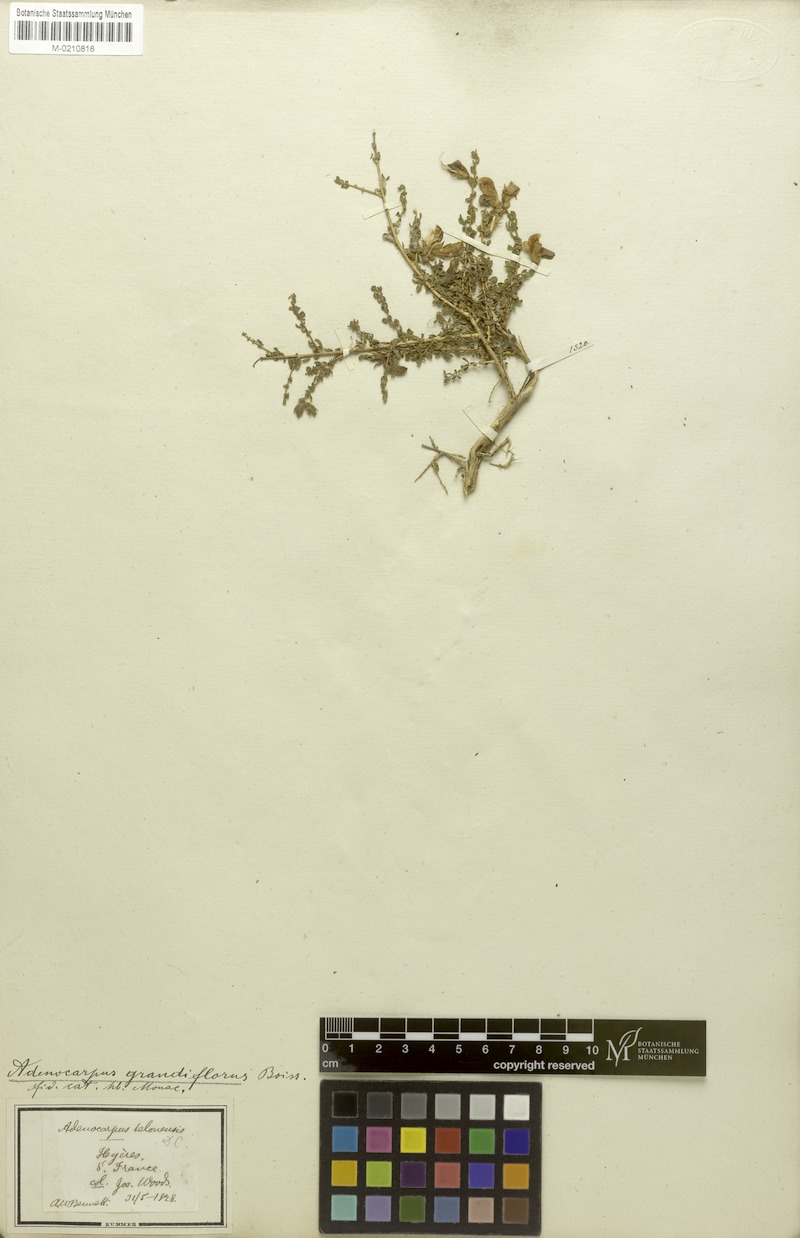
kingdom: Plantae
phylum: Tracheophyta
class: Magnoliopsida
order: Fabales
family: Fabaceae
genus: Adenocarpus
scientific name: Adenocarpus telonensis
